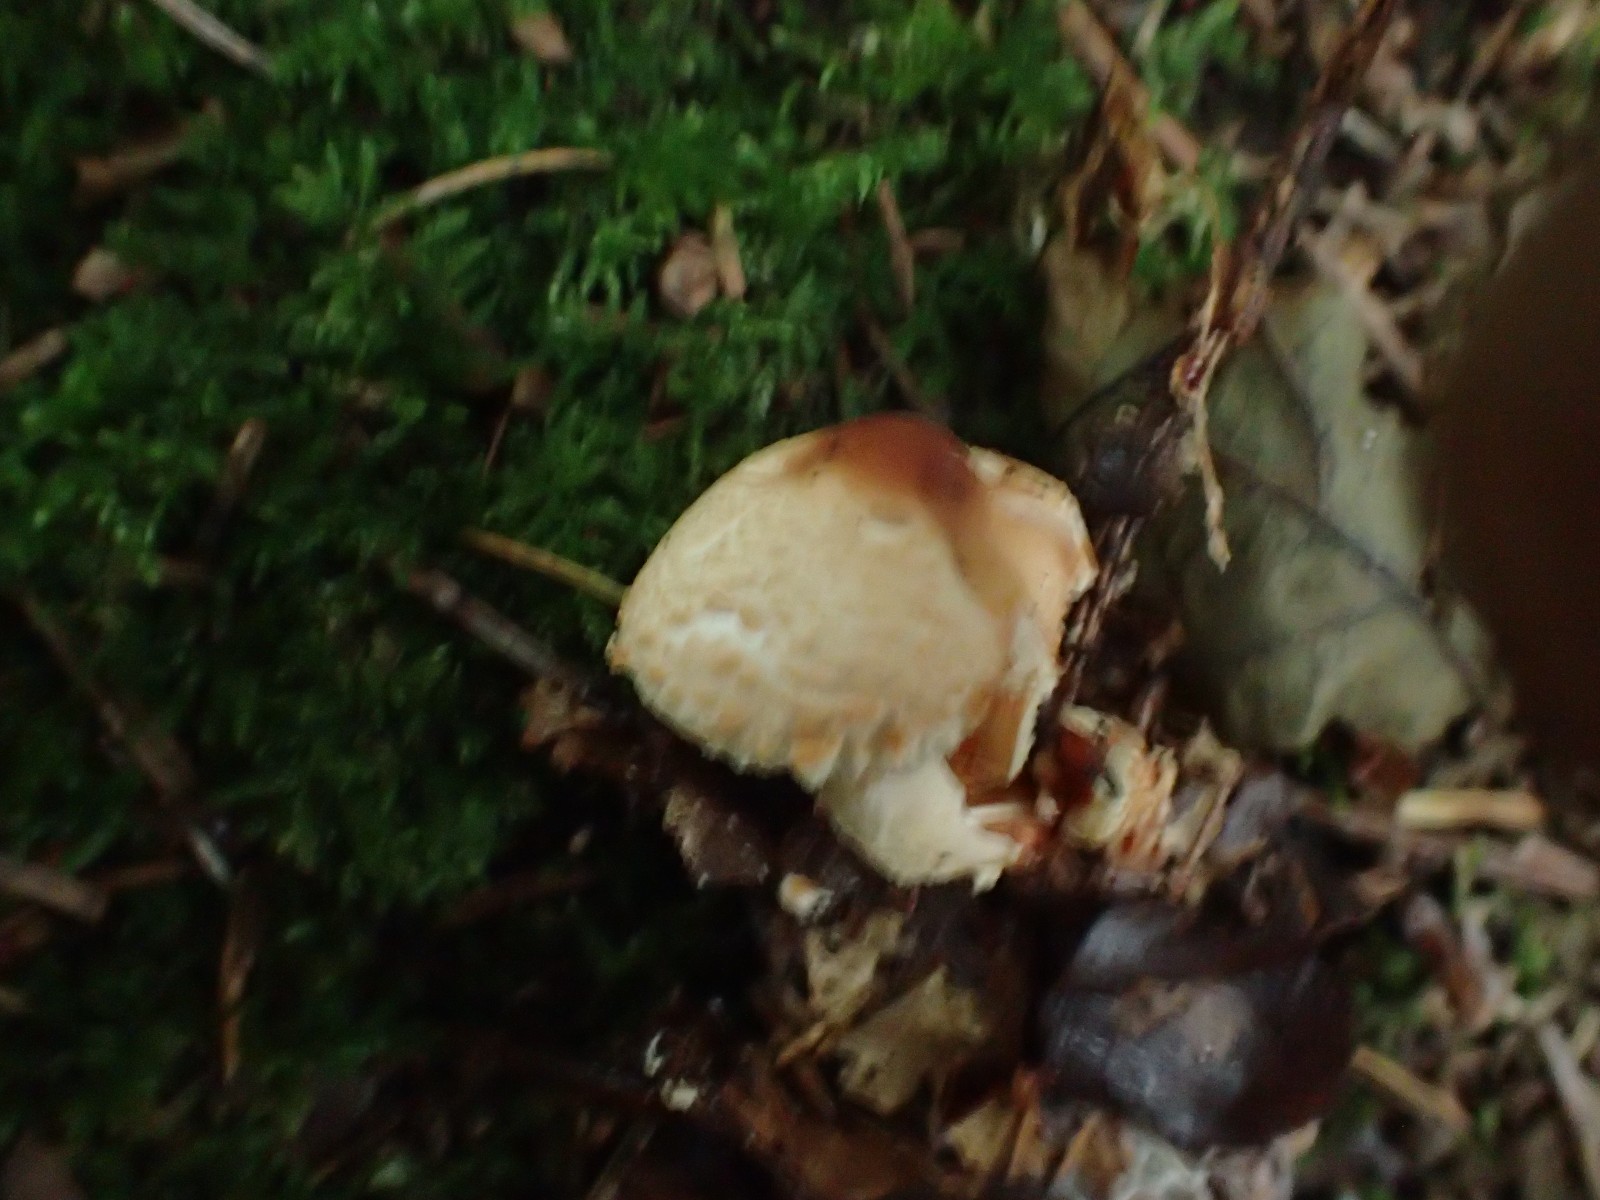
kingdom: Fungi
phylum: Basidiomycota
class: Agaricomycetes
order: Agaricales
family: Agaricaceae
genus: Lepiota
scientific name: Lepiota
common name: parasolhat
